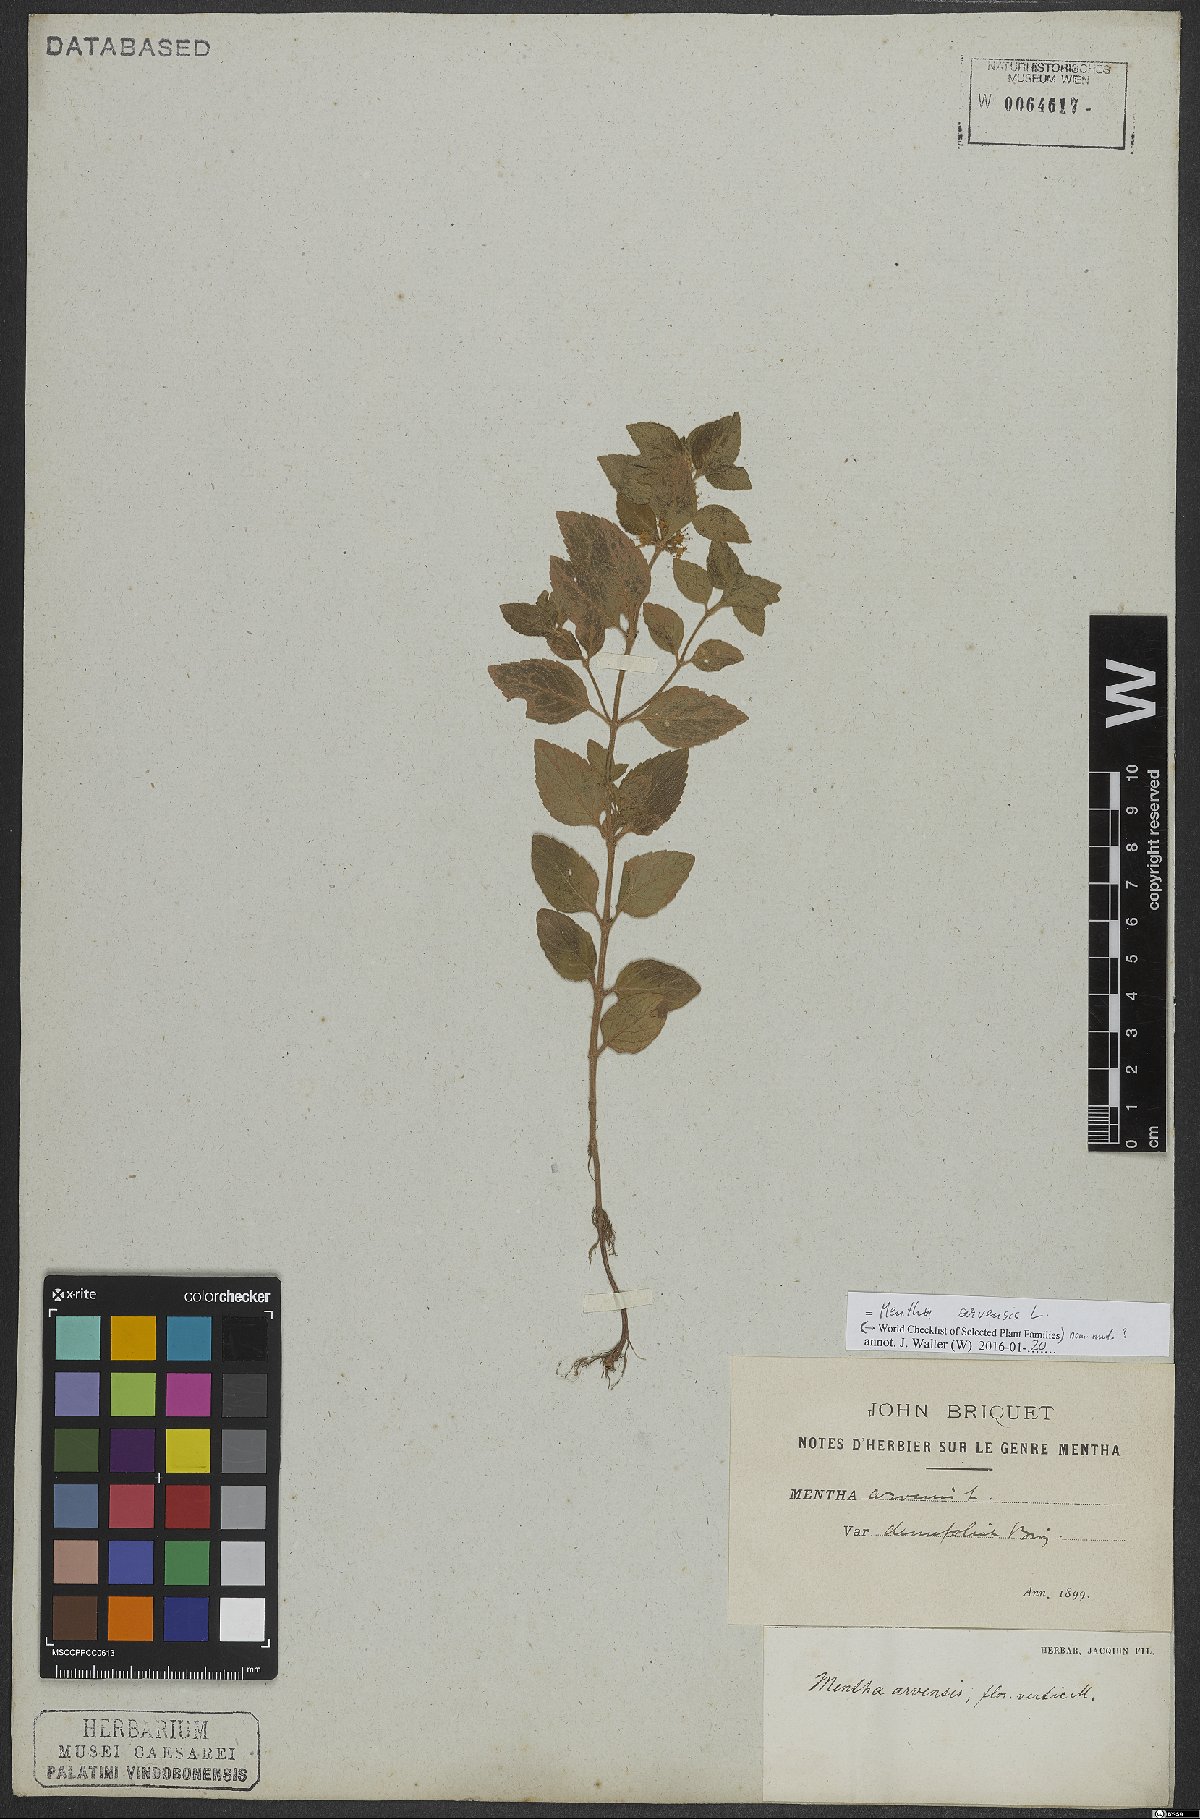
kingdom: Plantae
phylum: Tracheophyta
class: Magnoliopsida
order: Lamiales
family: Lamiaceae
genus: Mentha
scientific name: Mentha arvensis
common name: Corn mint
